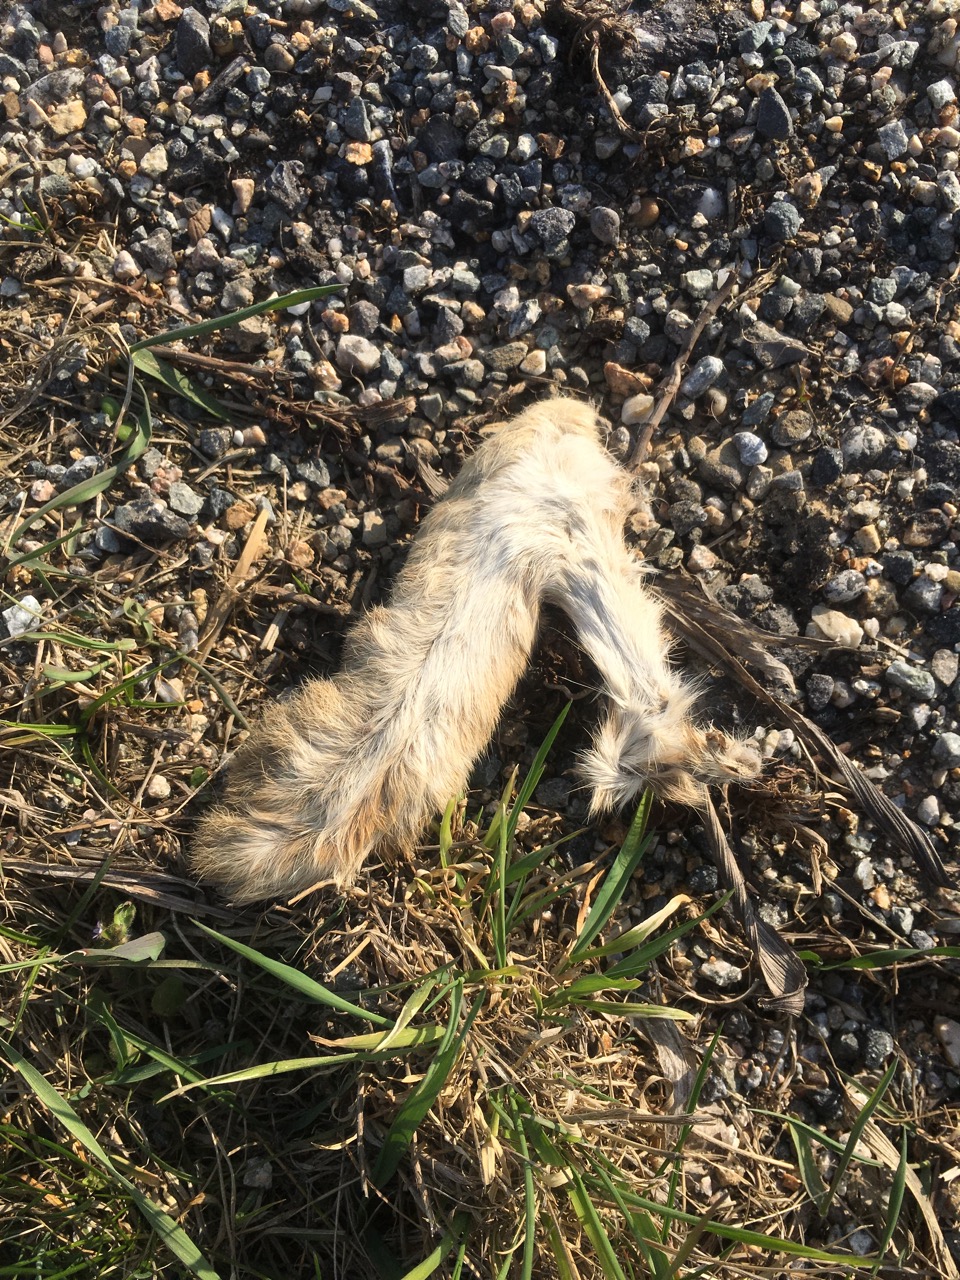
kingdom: Animalia
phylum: Chordata
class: Mammalia
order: Lagomorpha
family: Leporidae
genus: Lepus
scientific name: Lepus europaeus
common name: European hare
